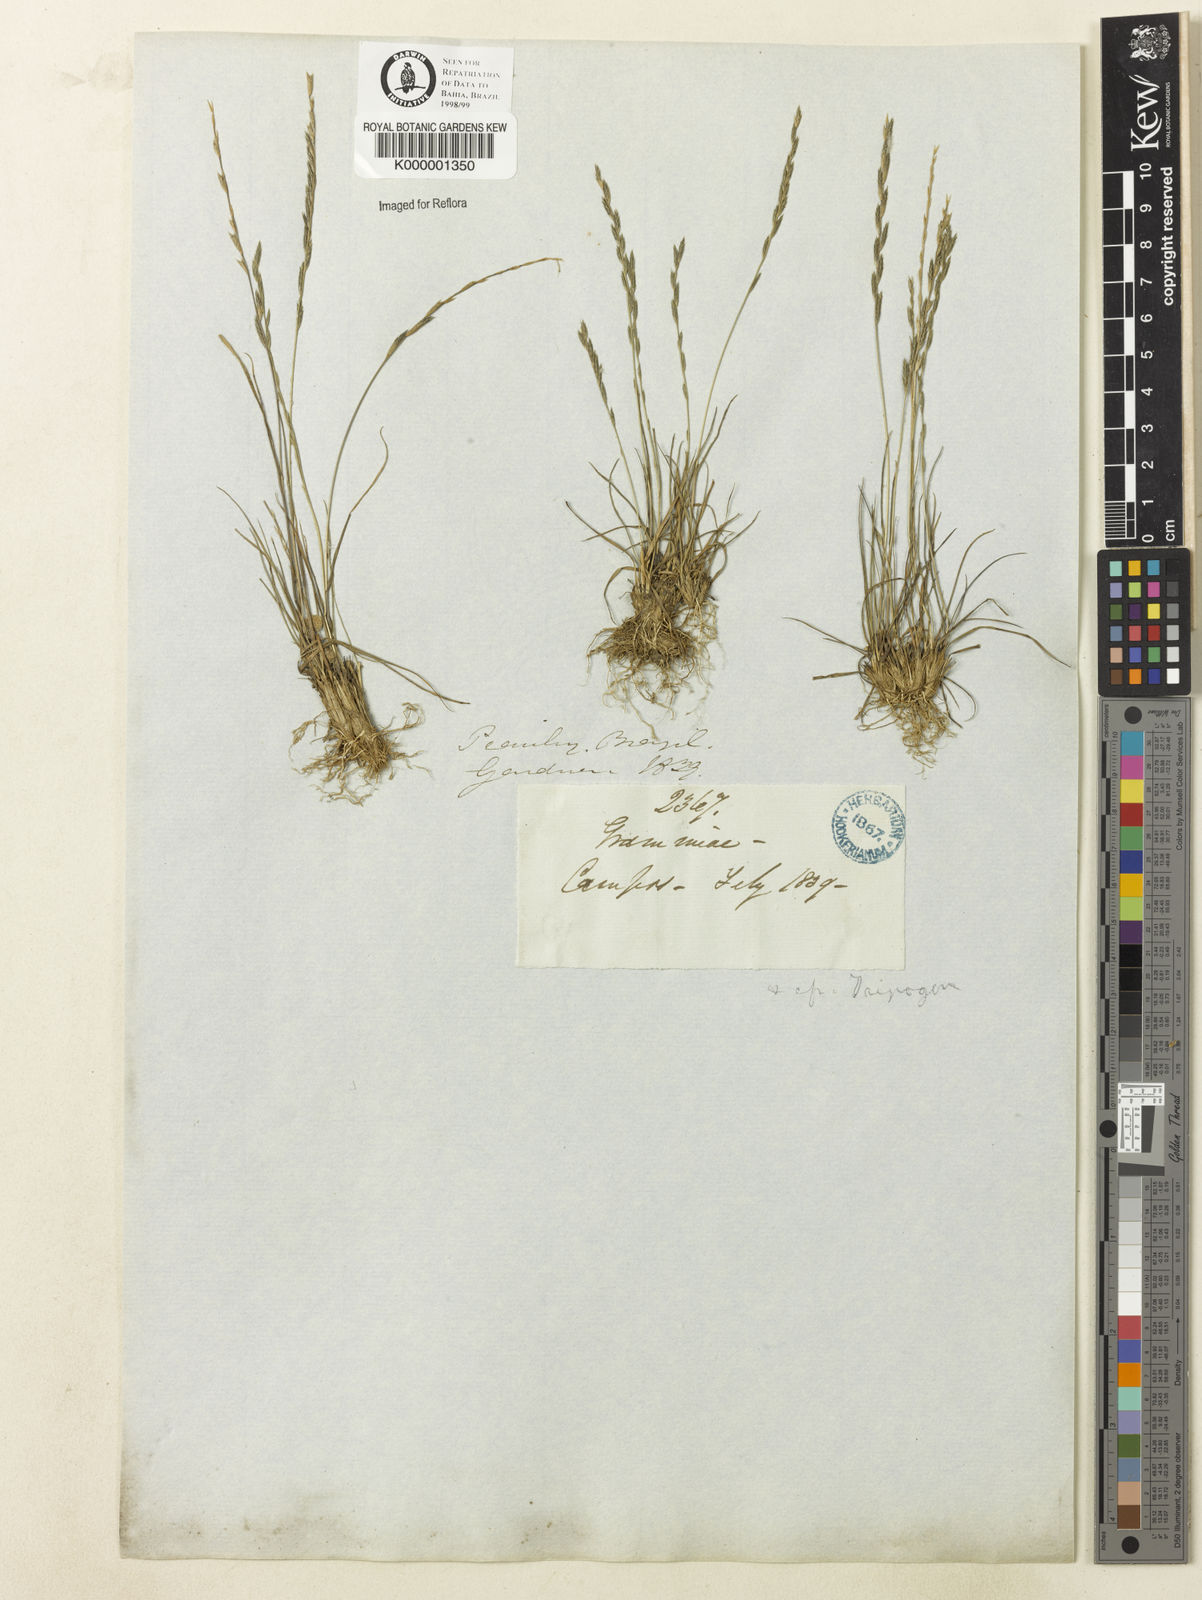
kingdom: Plantae
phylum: Tracheophyta
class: Liliopsida
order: Poales
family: Poaceae
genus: Eragrostis
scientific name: Eragrostis pilosa
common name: Indian lovegrass
